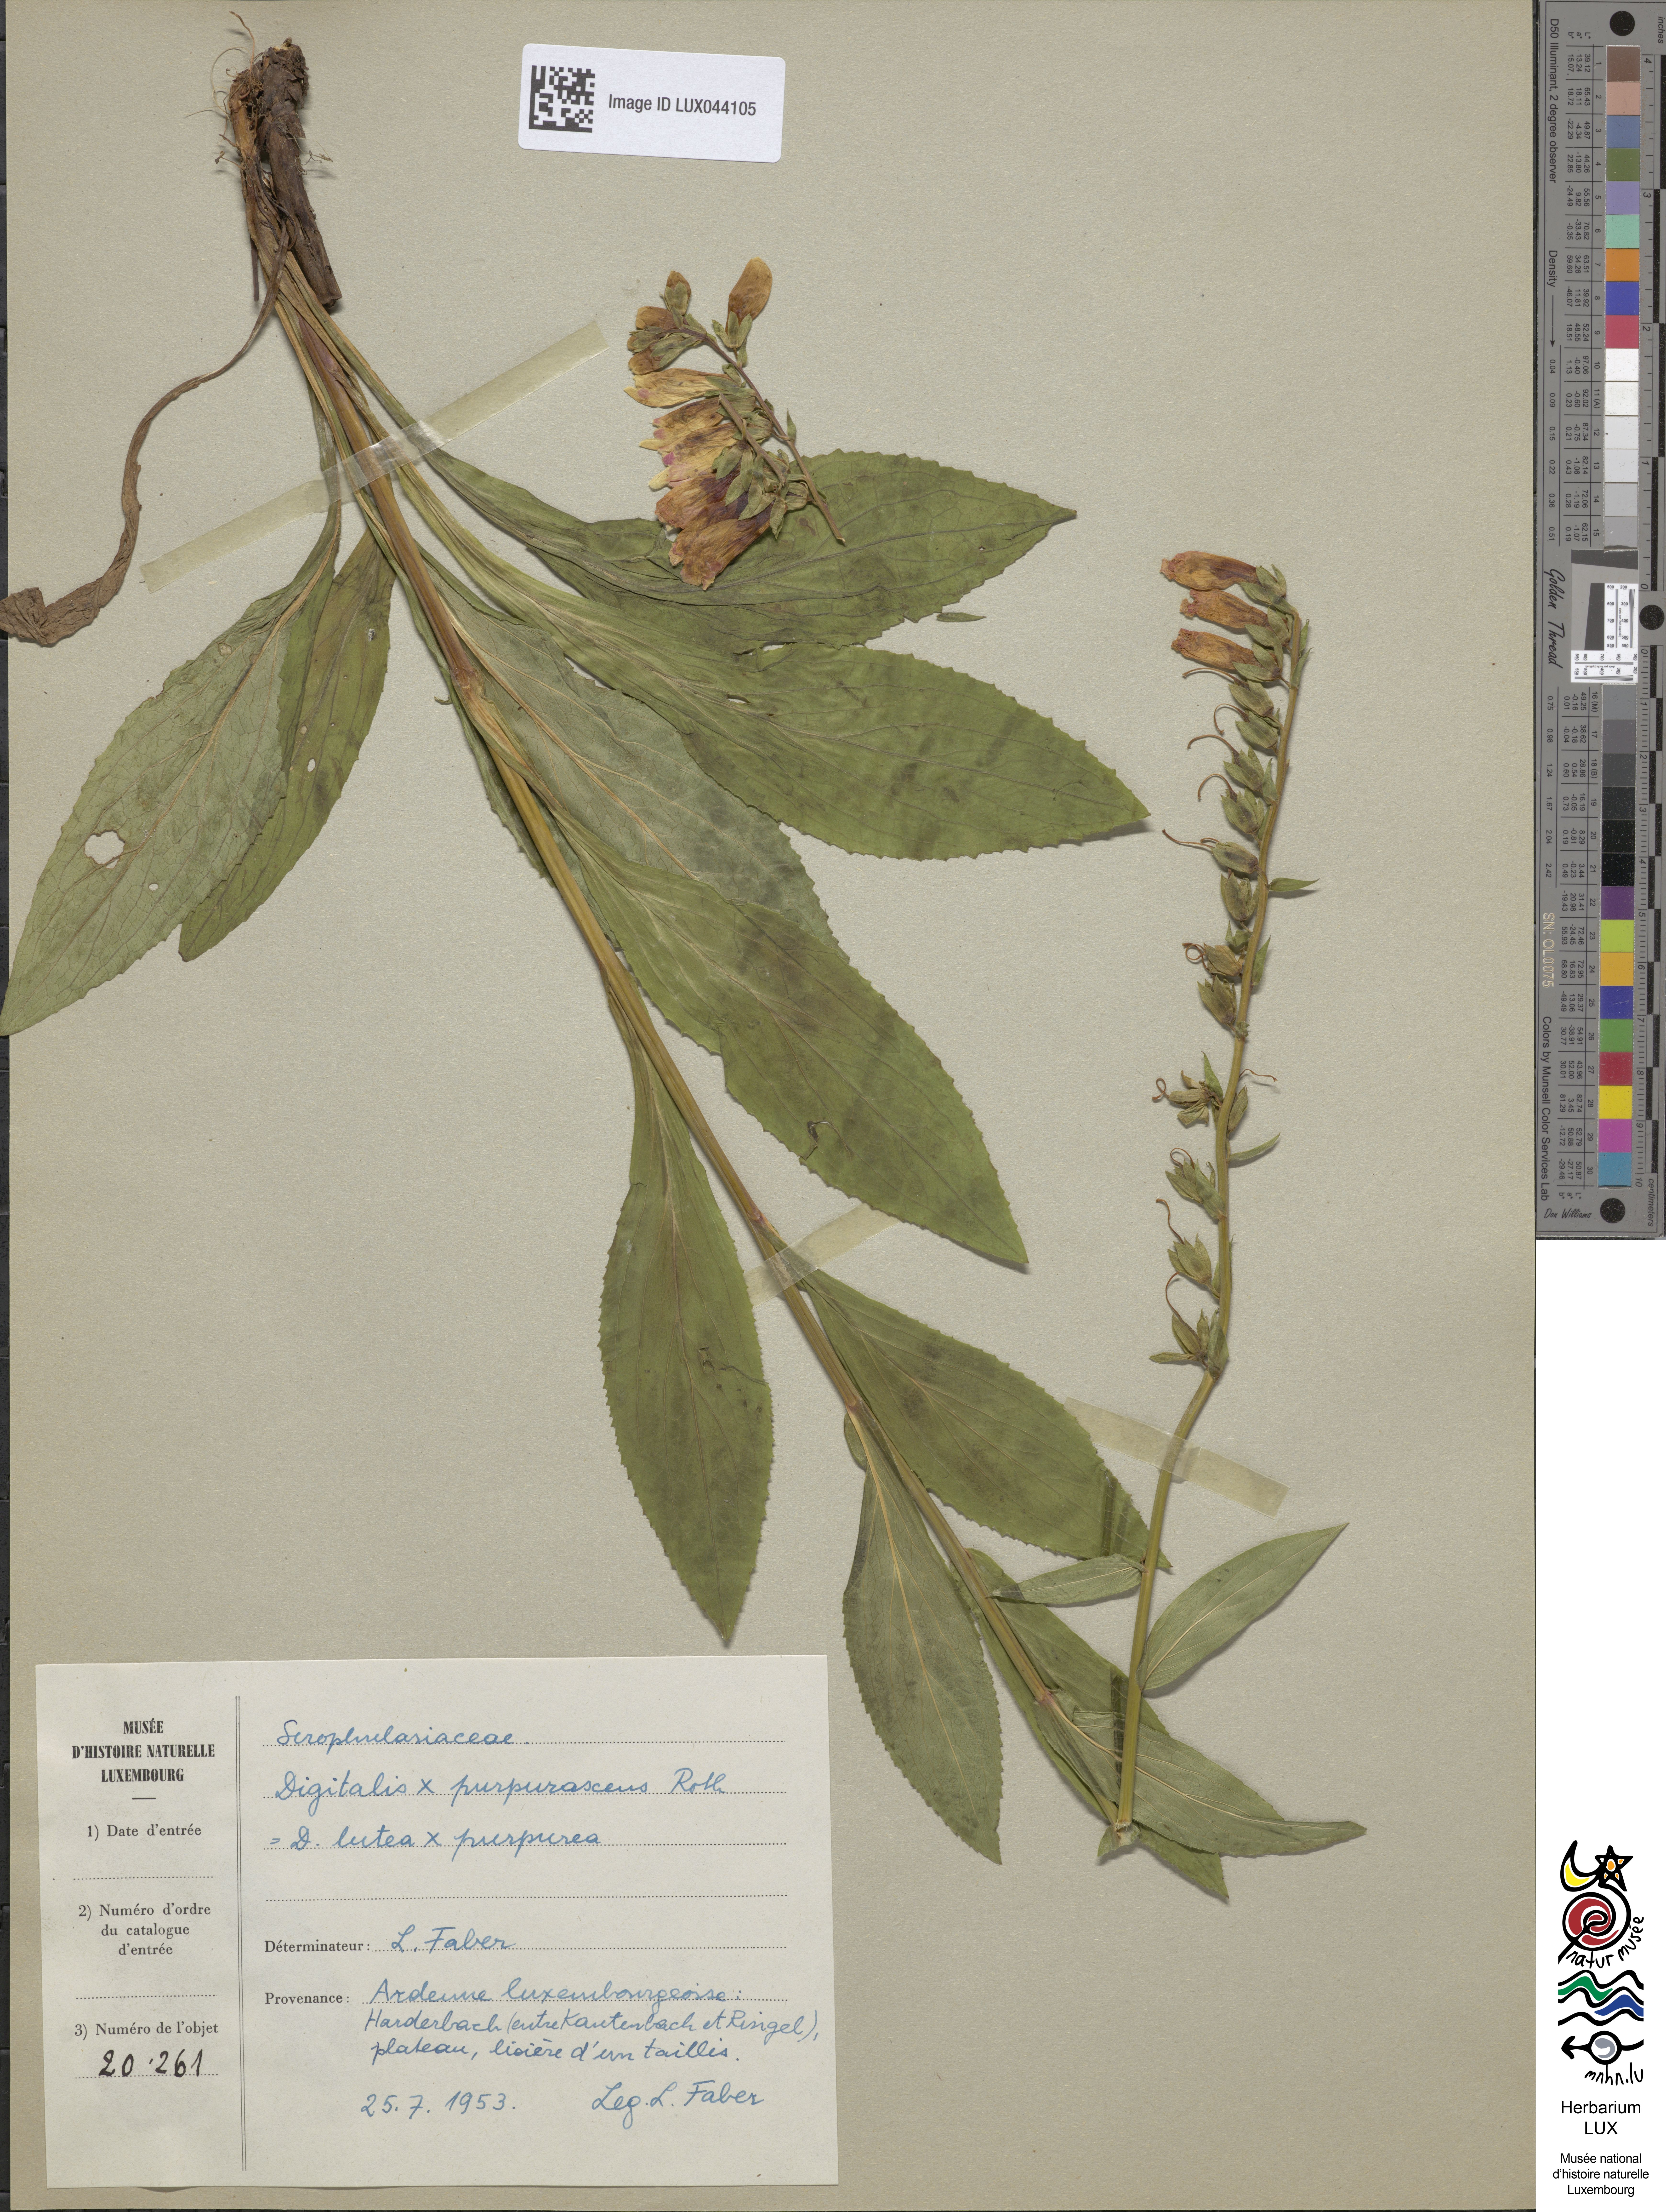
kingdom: Plantae
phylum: Tracheophyta
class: Magnoliopsida
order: Lamiales
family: Plantaginaceae
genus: Digitalis
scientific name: Digitalis fucata
